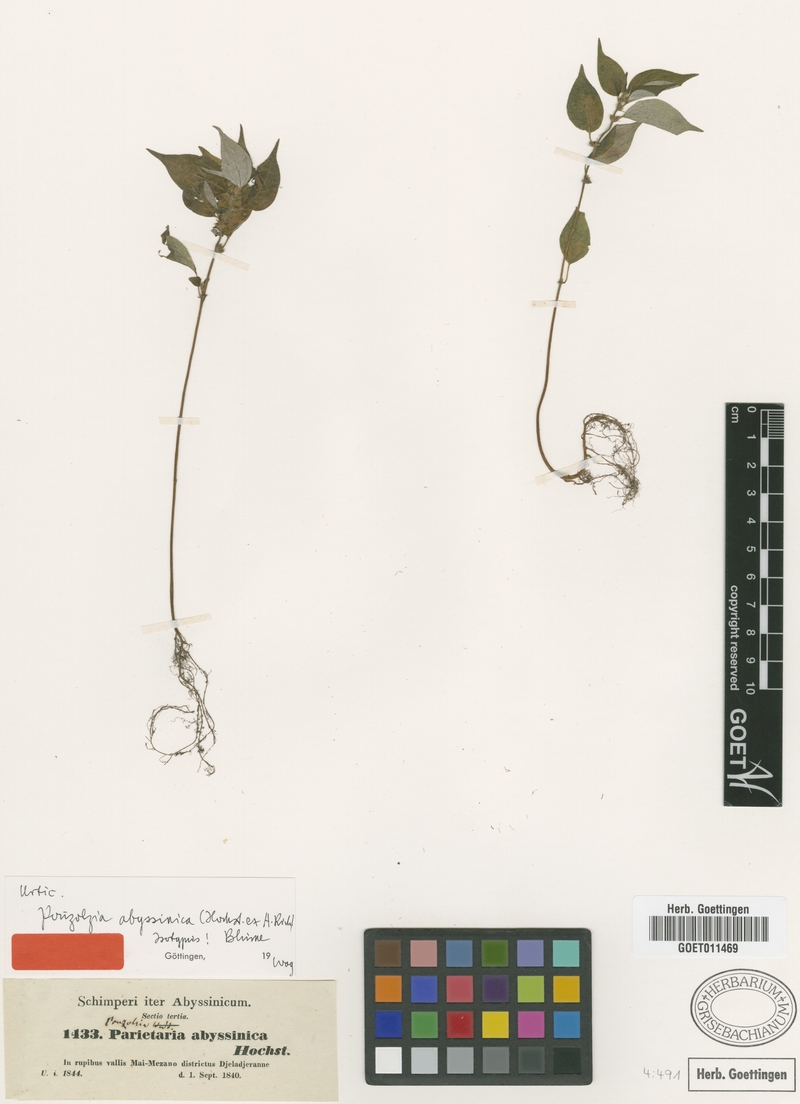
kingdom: Plantae
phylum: Tracheophyta
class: Magnoliopsida
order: Rosales
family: Urticaceae
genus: Pouzolzia
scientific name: Pouzolzia guineensis
